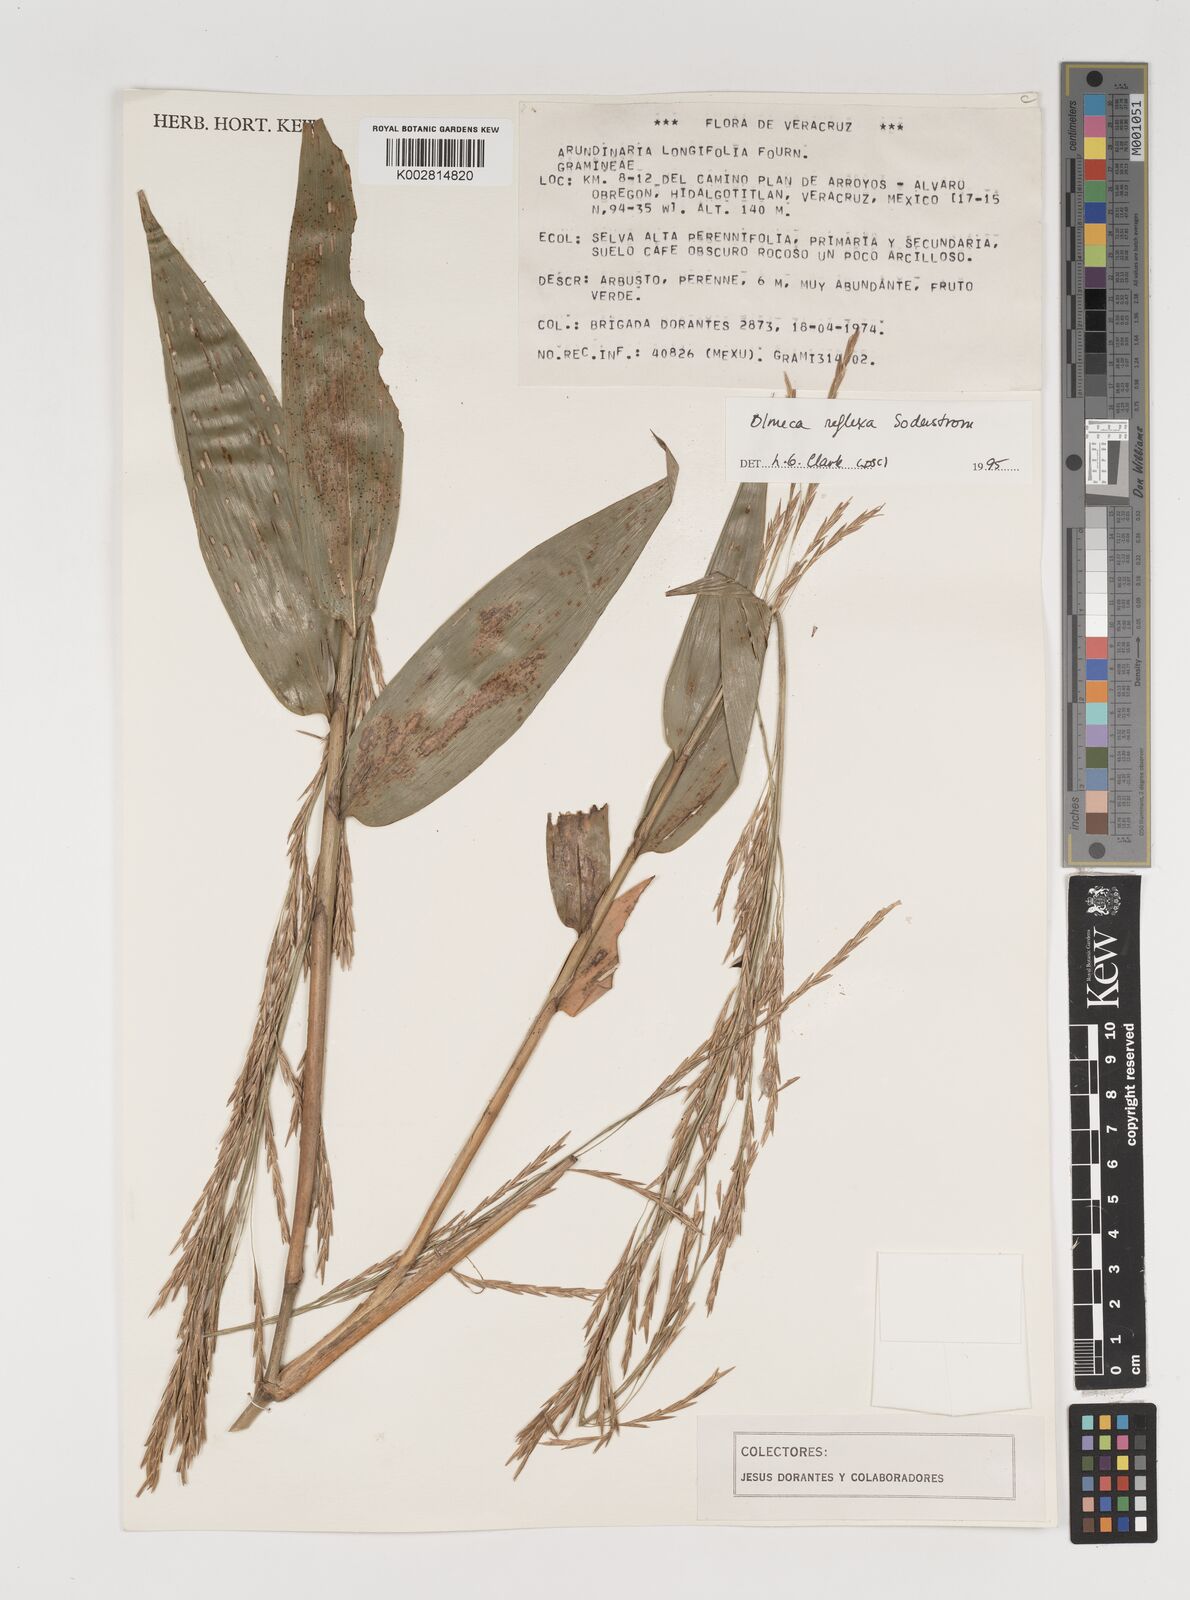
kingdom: Plantae
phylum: Tracheophyta
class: Liliopsida
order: Poales
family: Poaceae
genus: Olmeca
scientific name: Olmeca reflexa
